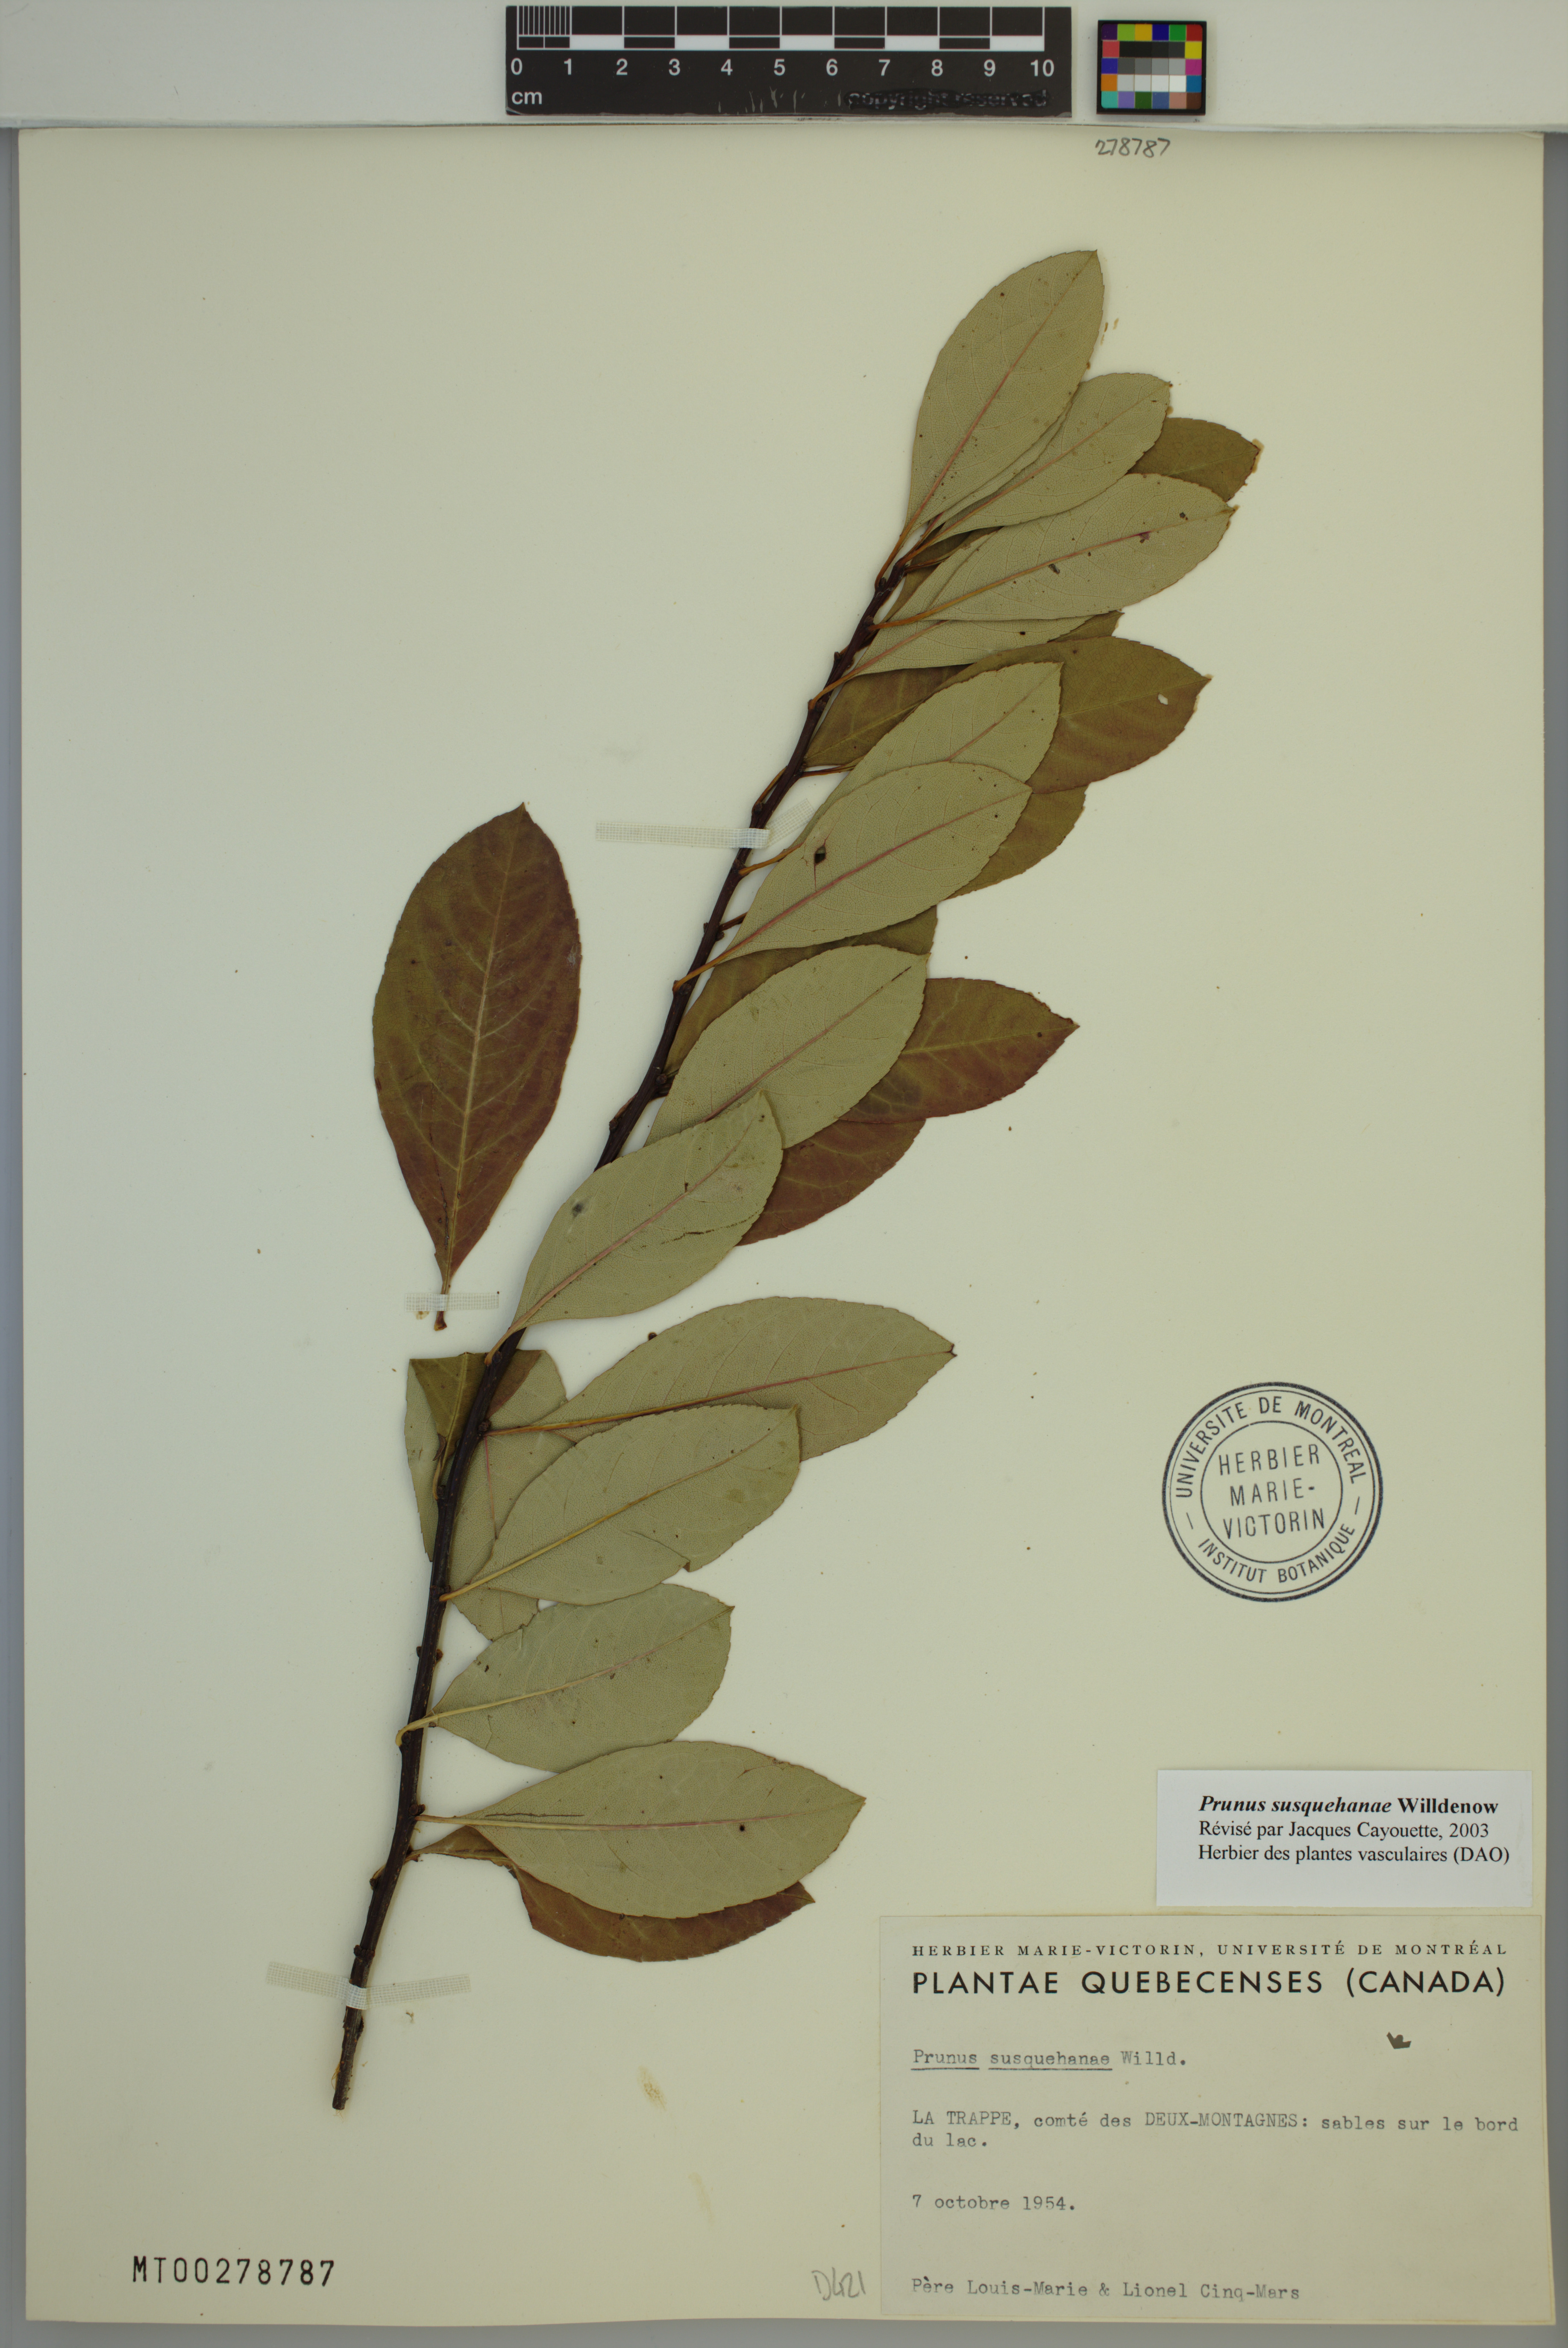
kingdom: Plantae
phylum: Tracheophyta
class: Magnoliopsida
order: Rosales
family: Rosaceae
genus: Prunus
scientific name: Prunus susquehanae
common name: Sesquehana sandcherry
